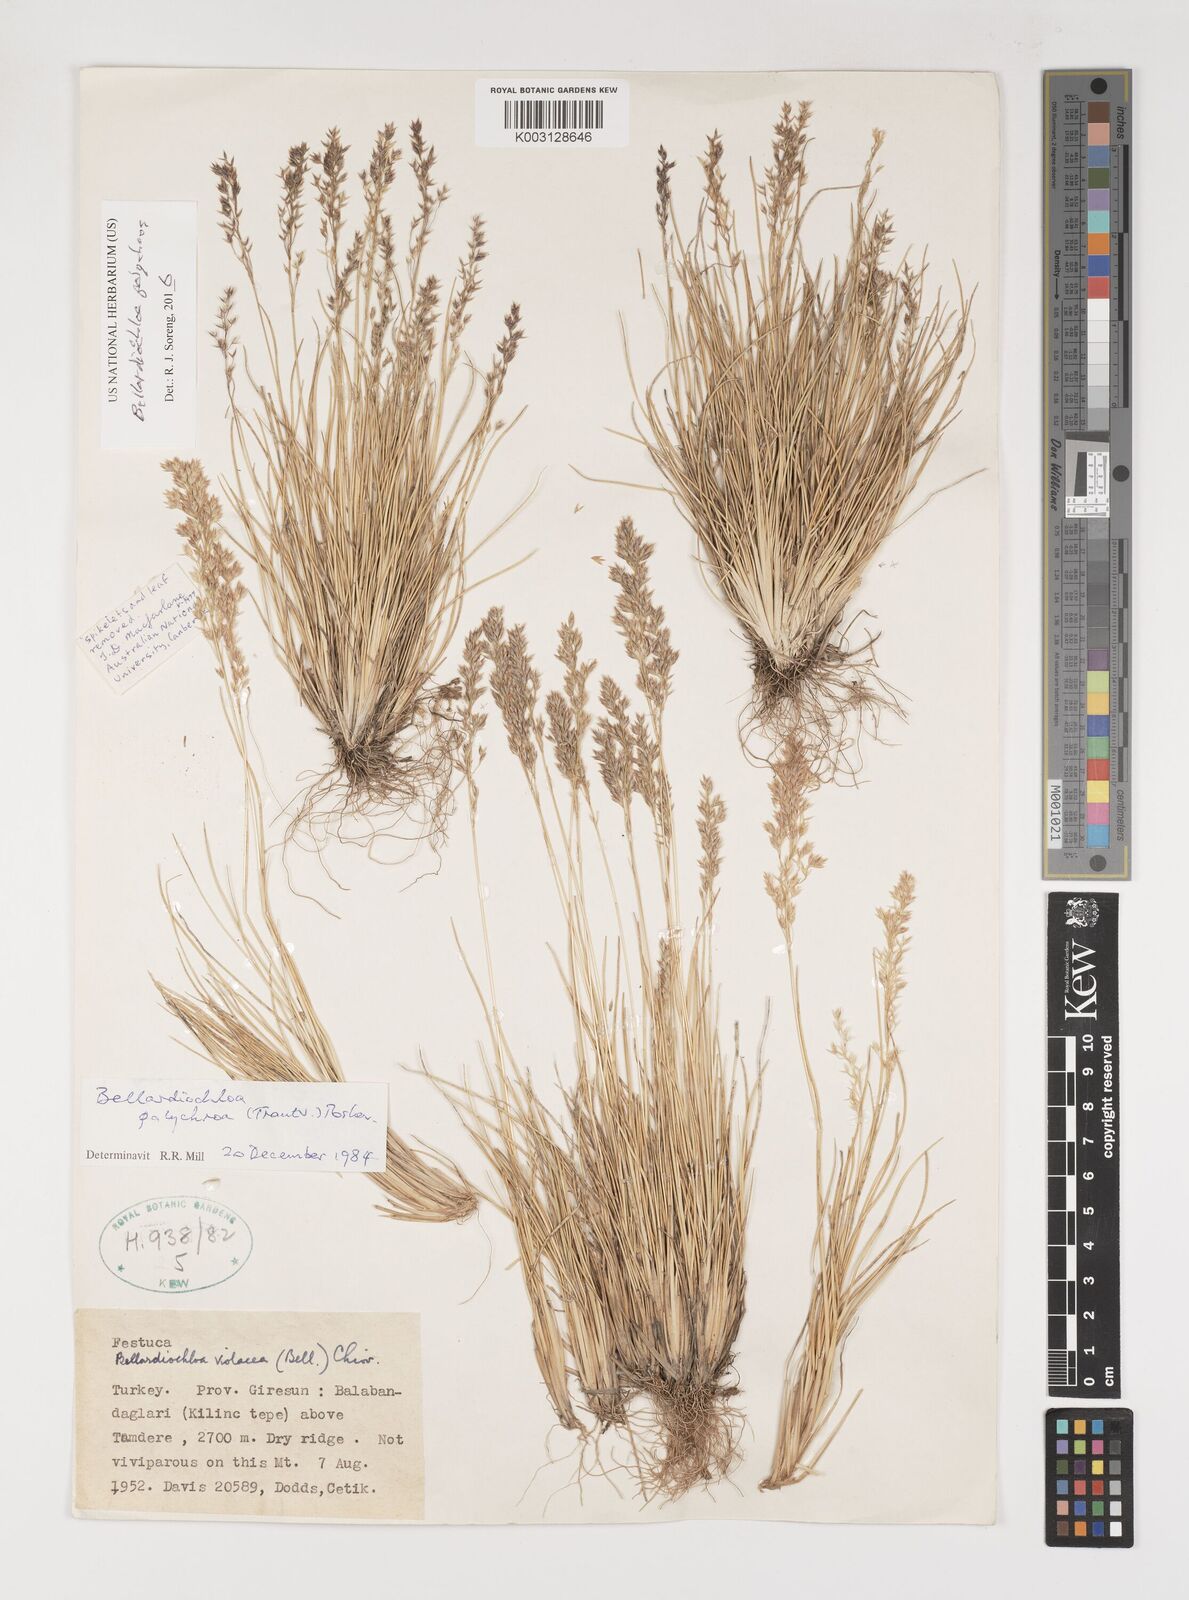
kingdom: Plantae
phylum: Tracheophyta
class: Liliopsida
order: Poales
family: Poaceae
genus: Bellardiochloa
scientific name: Bellardiochloa polychroa
